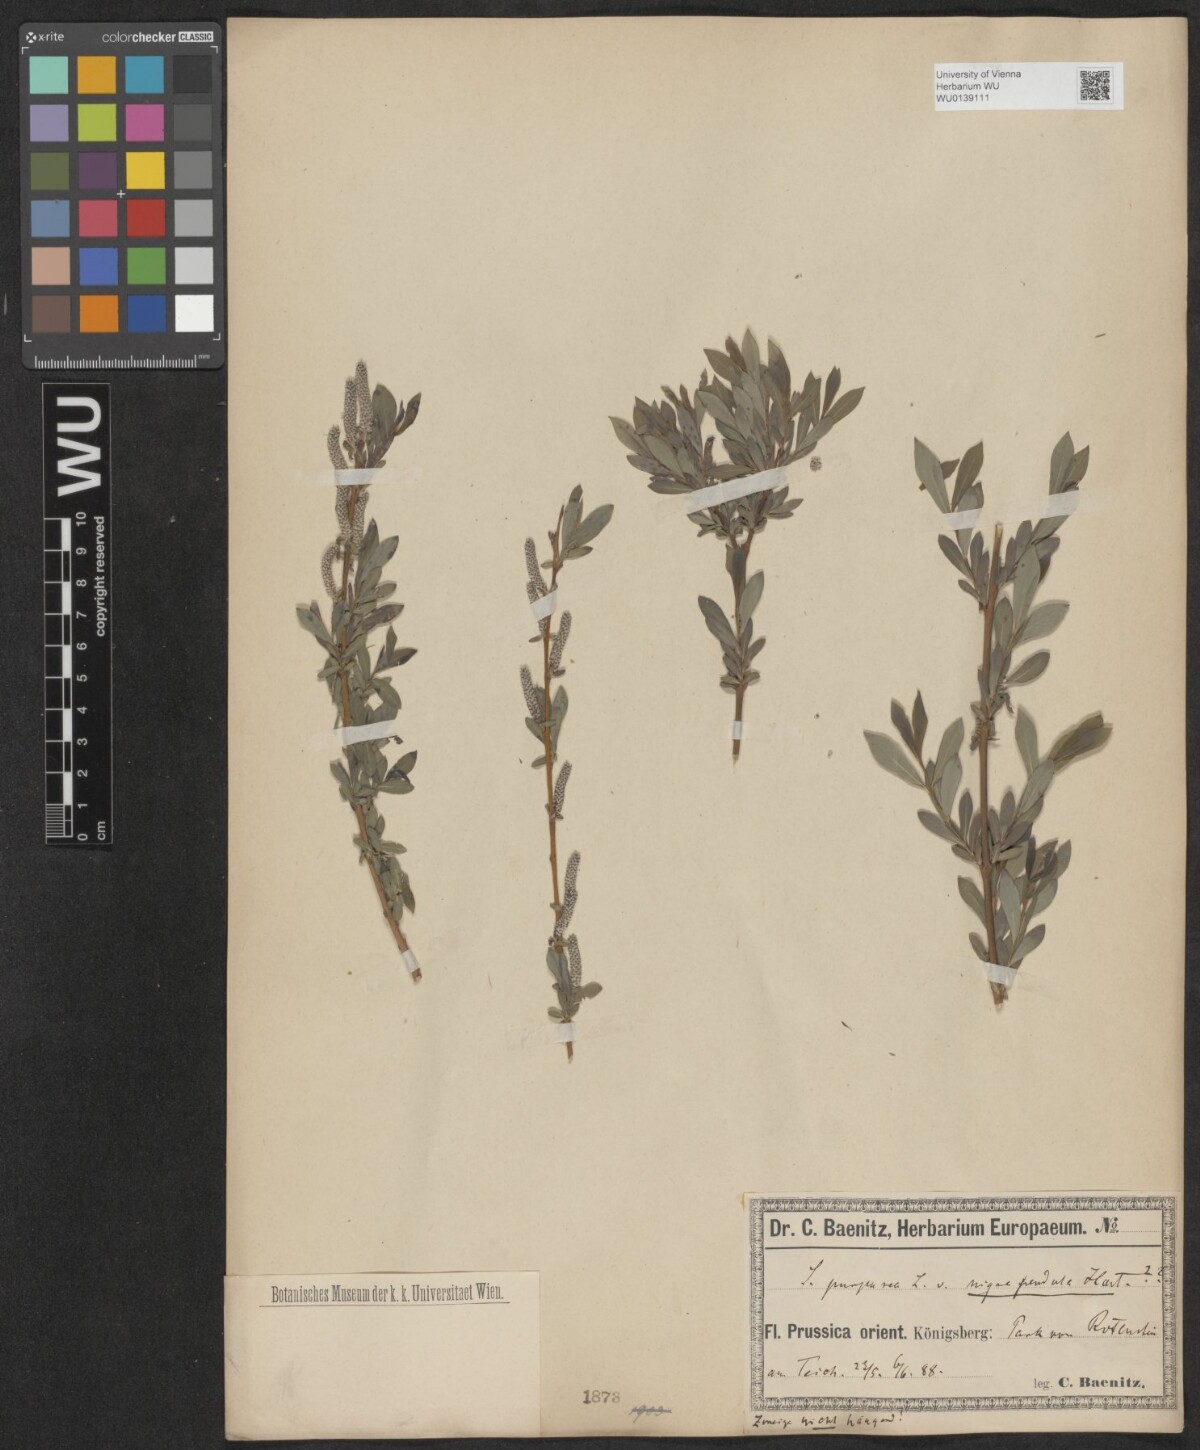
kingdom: Plantae
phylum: Tracheophyta
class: Magnoliopsida
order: Malpighiales
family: Salicaceae
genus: Salix
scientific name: Salix purpurea
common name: Purple willow
